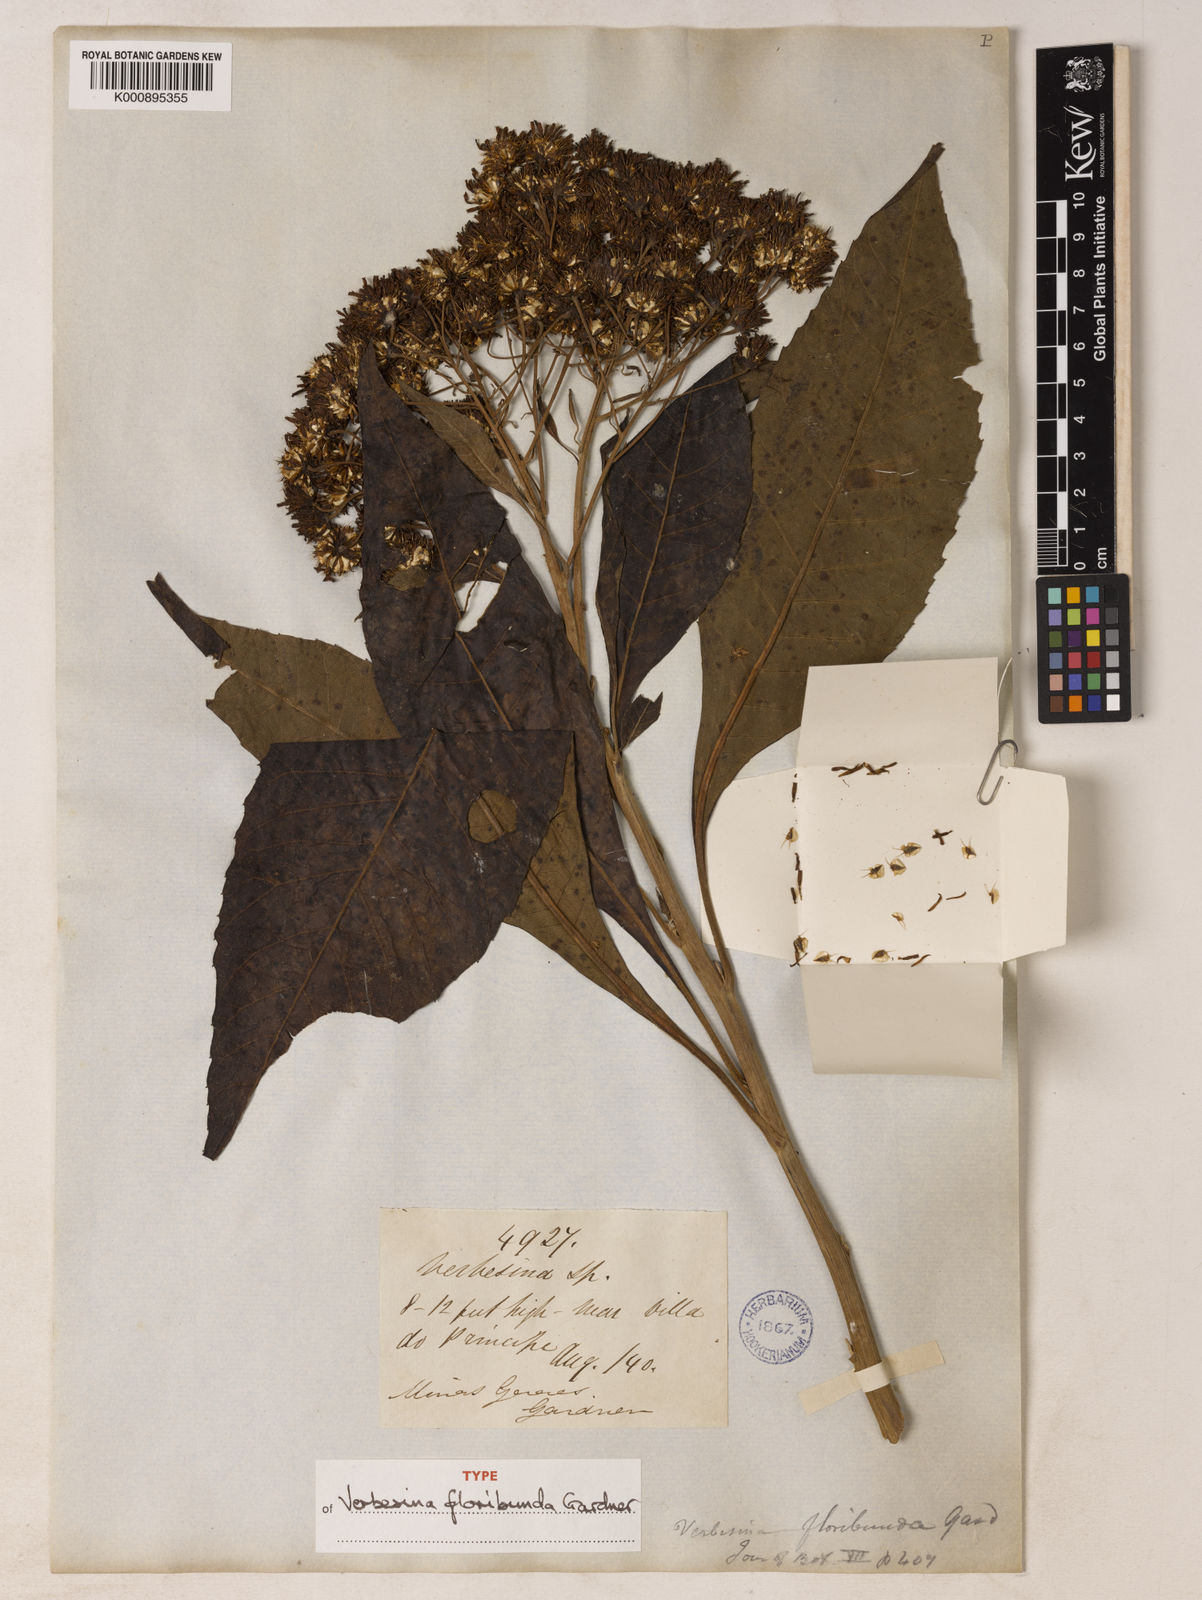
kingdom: Plantae
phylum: Tracheophyta
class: Magnoliopsida
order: Asterales
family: Asteraceae
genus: Verbesina
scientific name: Verbesina floribunda
